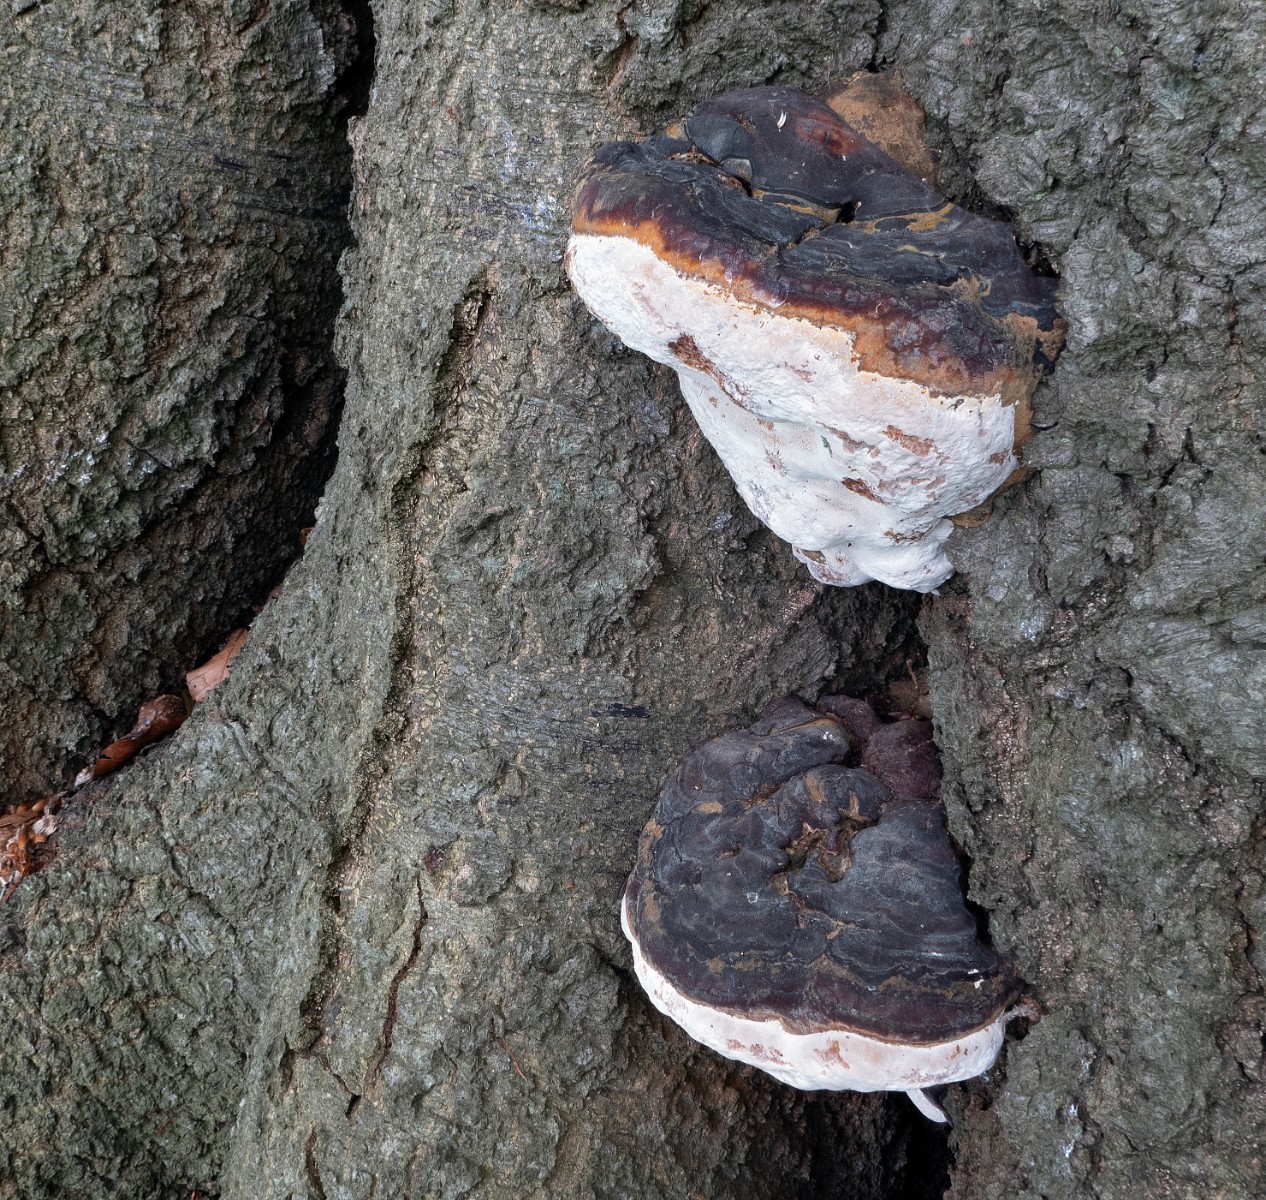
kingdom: Fungi
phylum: Basidiomycota
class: Agaricomycetes
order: Polyporales
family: Polyporaceae
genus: Ganoderma
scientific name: Ganoderma pfeifferi
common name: kobberrød lakporesvamp
